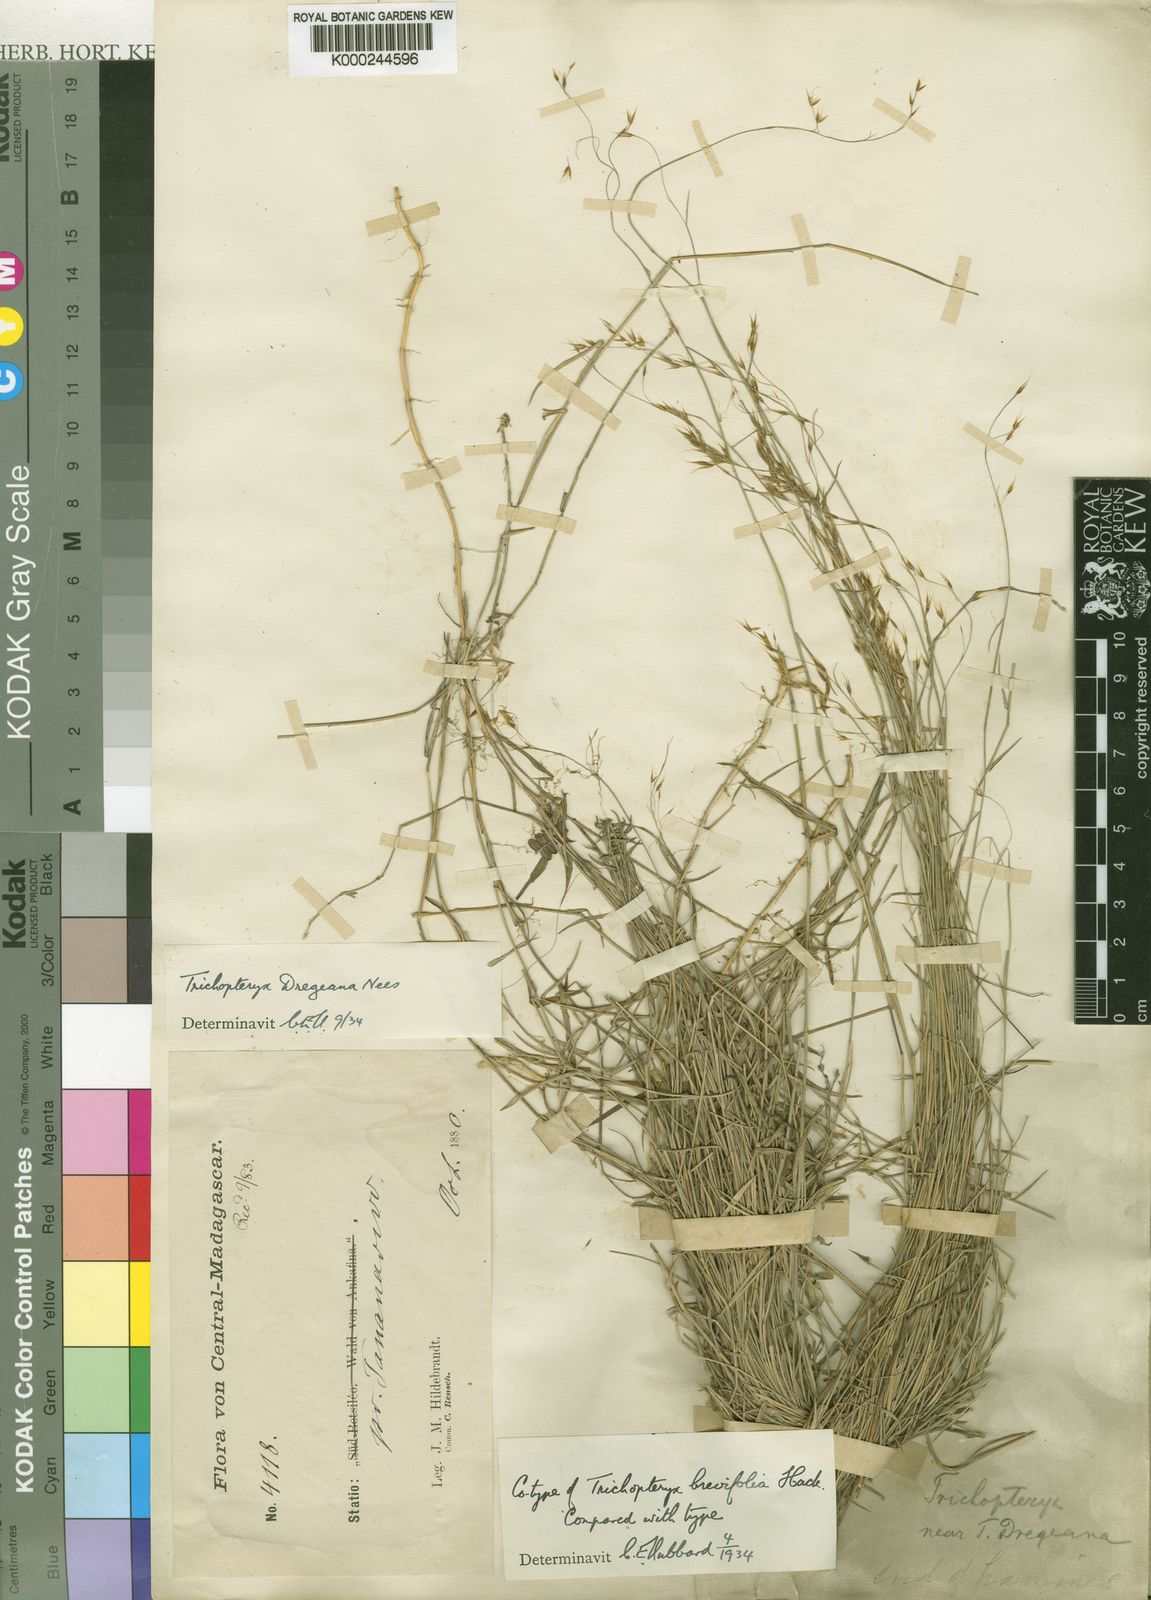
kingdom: Plantae
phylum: Tracheophyta
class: Liliopsida
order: Poales
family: Poaceae
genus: Trichopteryx
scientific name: Trichopteryx dregeana
